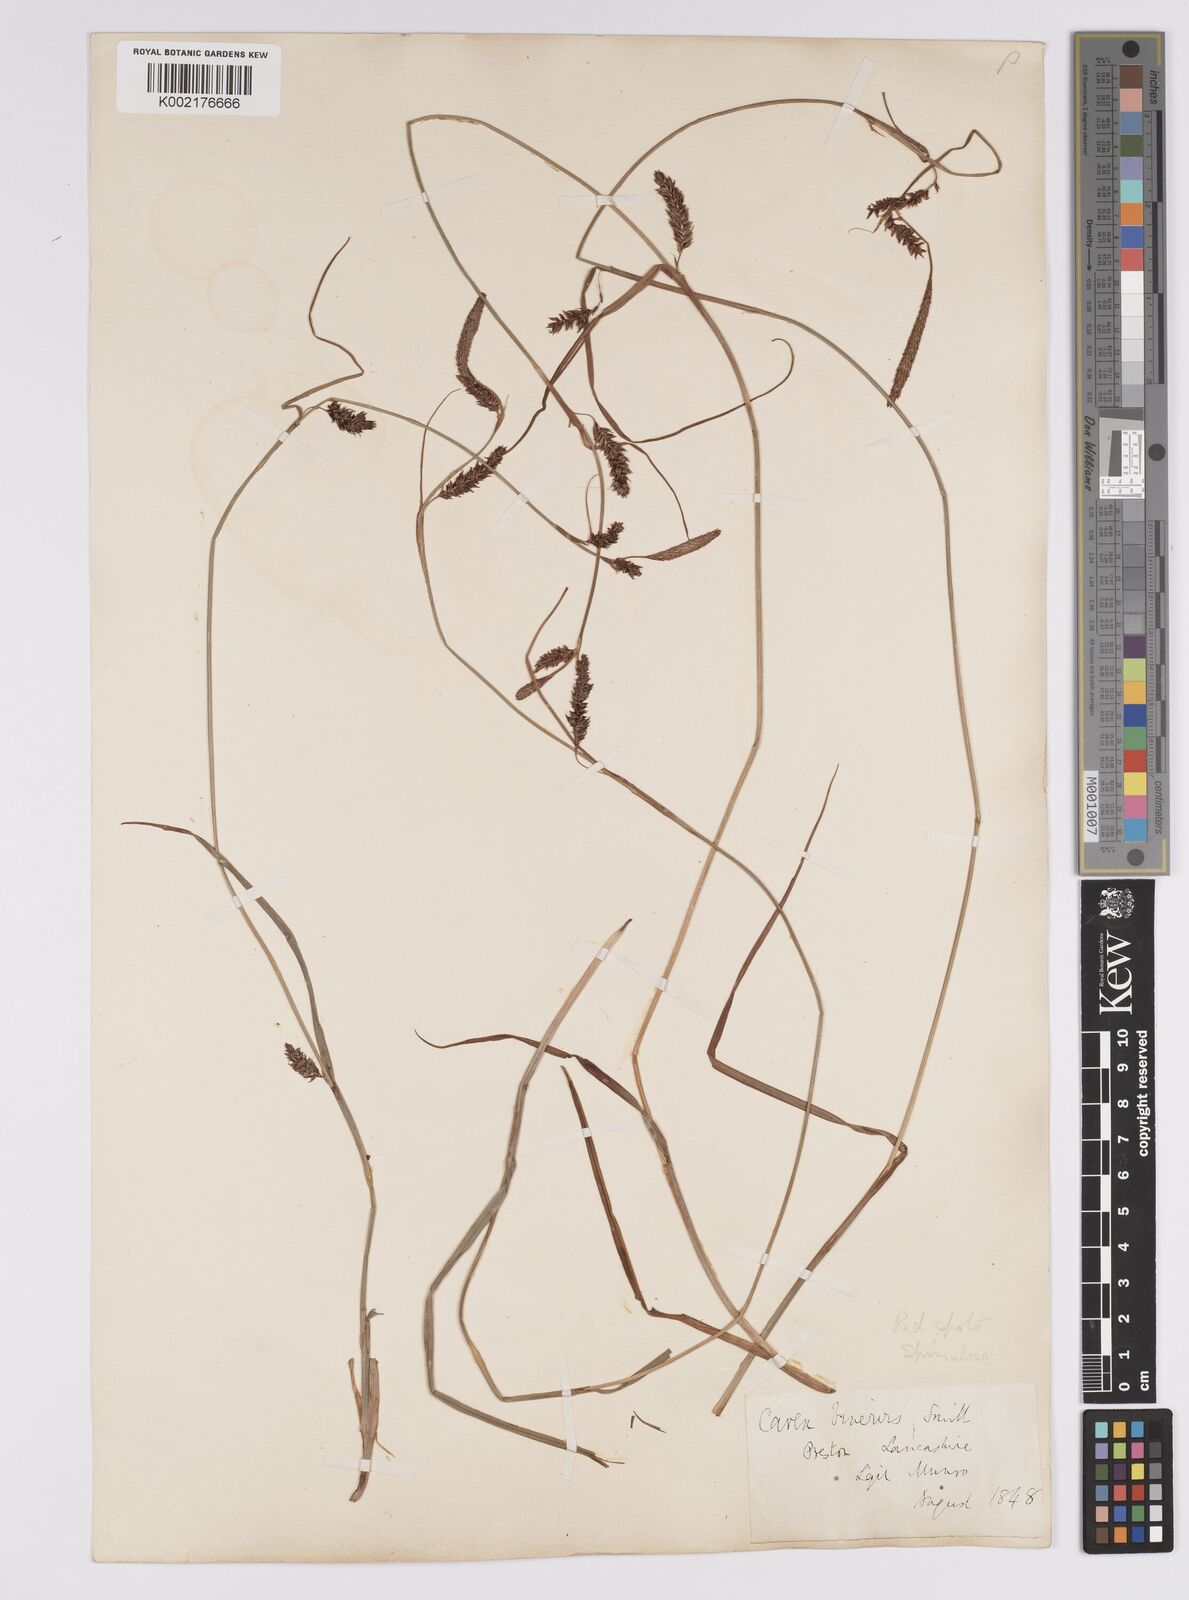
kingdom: Plantae
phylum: Tracheophyta
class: Liliopsida
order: Poales
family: Cyperaceae
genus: Carex
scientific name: Carex binervis
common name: Green-ribbed sedge
